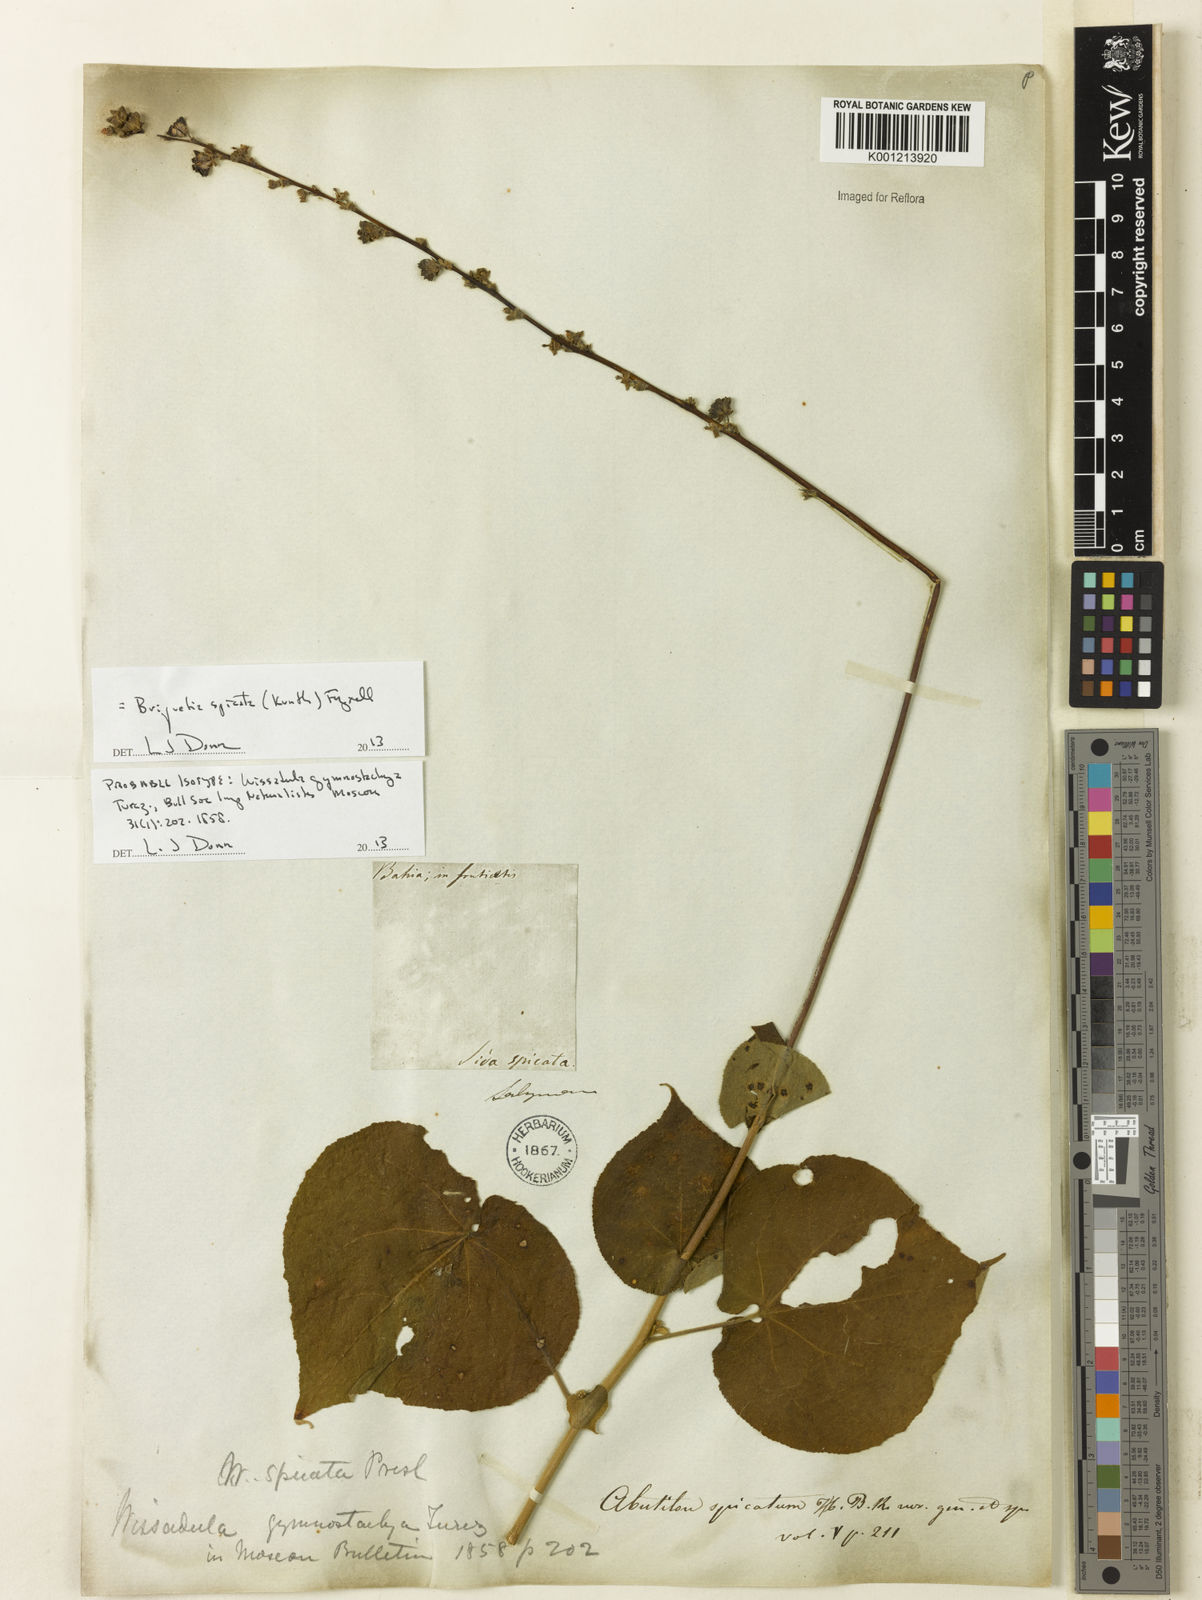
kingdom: Plantae
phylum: Tracheophyta
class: Magnoliopsida
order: Malvales
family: Malvaceae
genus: Allobriquetia
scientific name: Allobriquetia spicata
